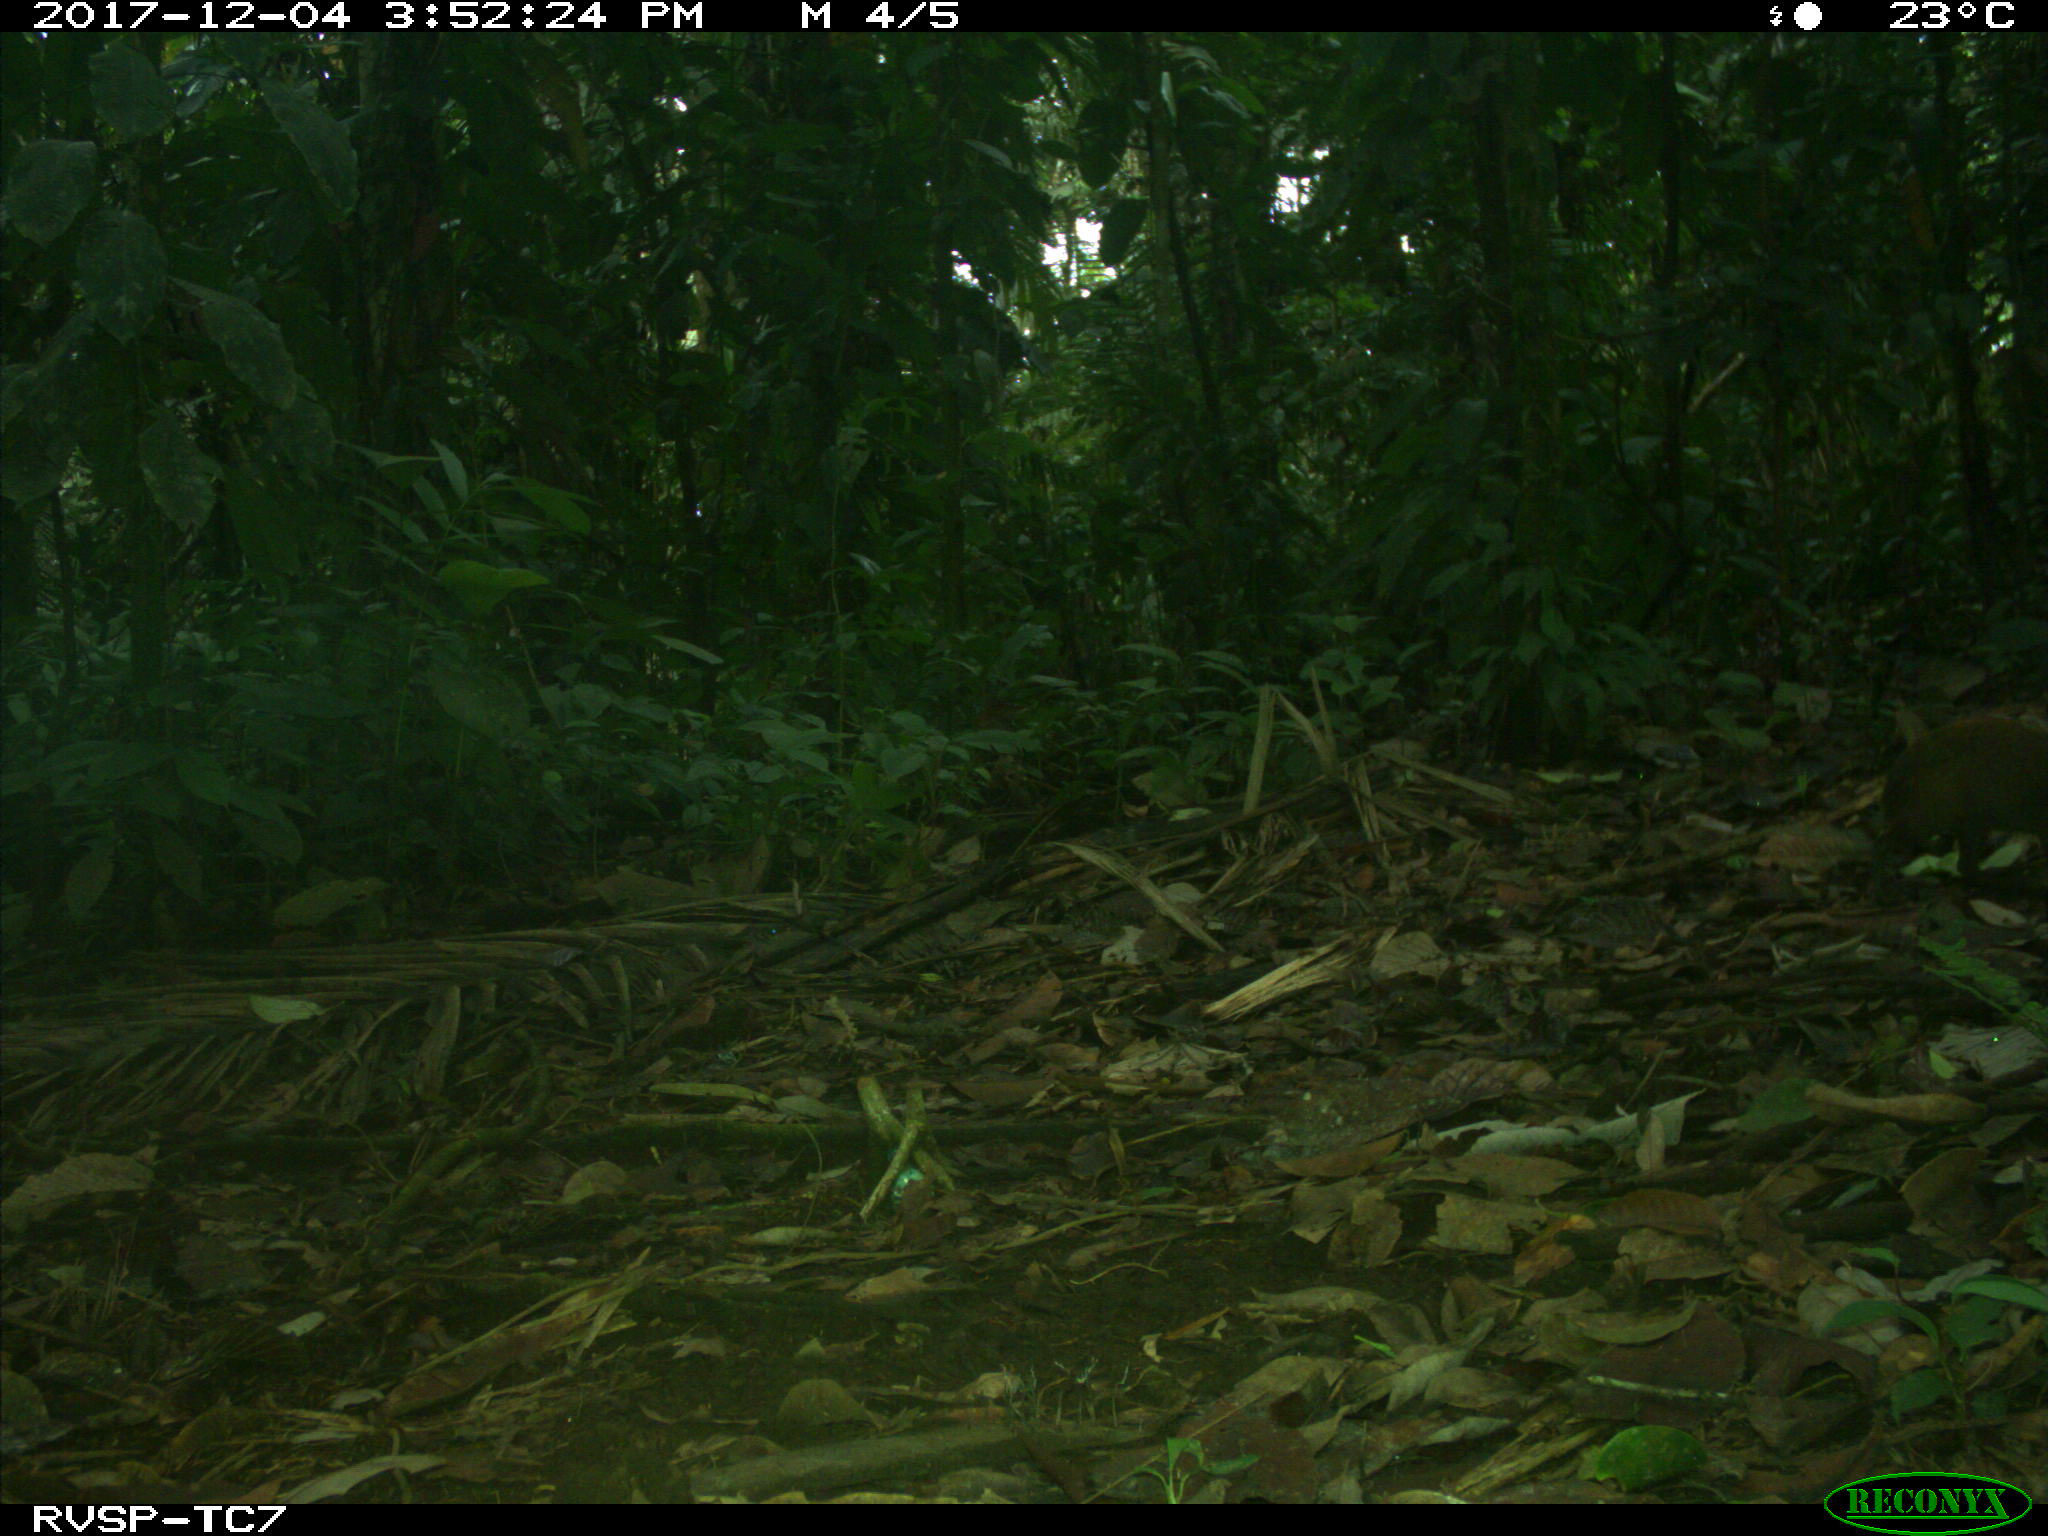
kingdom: Animalia
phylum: Chordata
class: Mammalia
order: Rodentia
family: Dasyproctidae
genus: Dasyprocta
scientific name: Dasyprocta punctata
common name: Central american agouti
